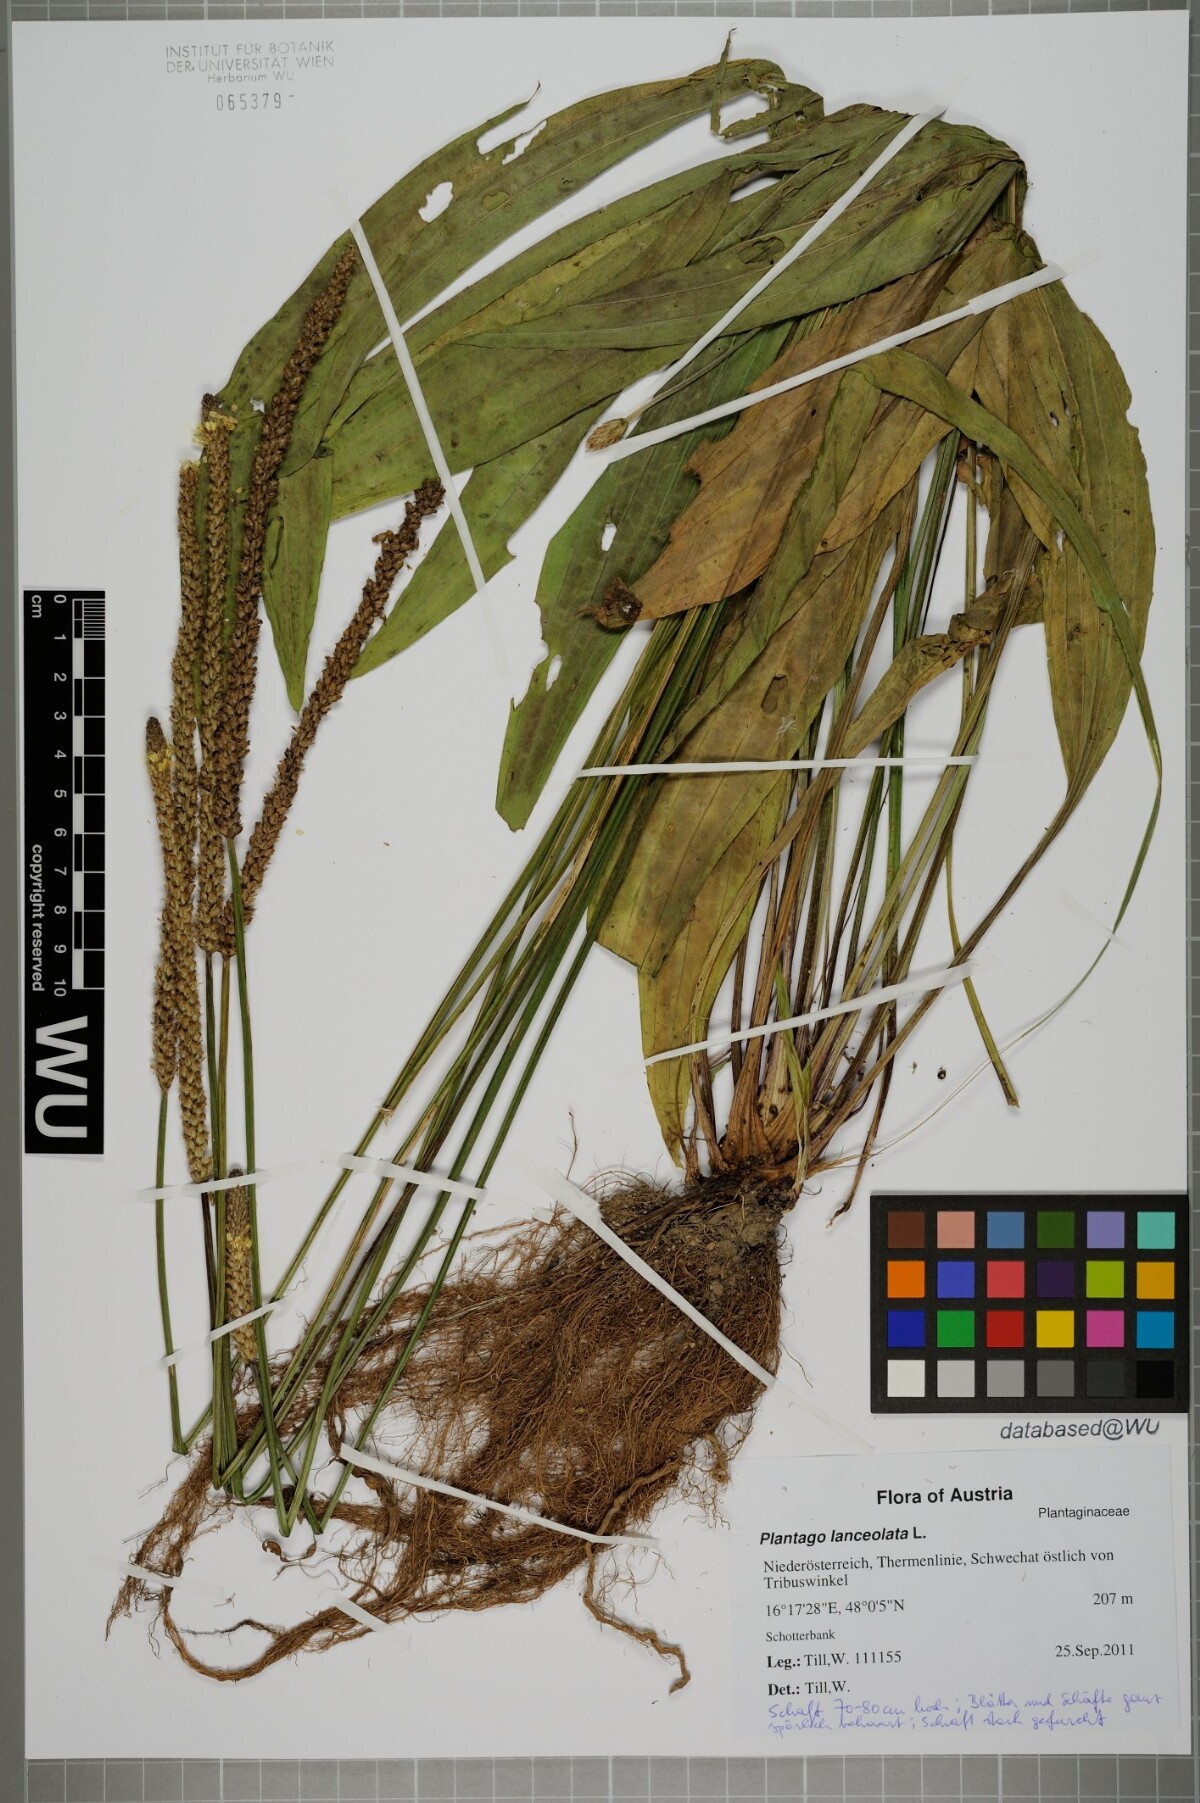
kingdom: Plantae
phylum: Tracheophyta
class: Magnoliopsida
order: Lamiales
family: Plantaginaceae
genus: Plantago
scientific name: Plantago lanceolata
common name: Ribwort plantain
